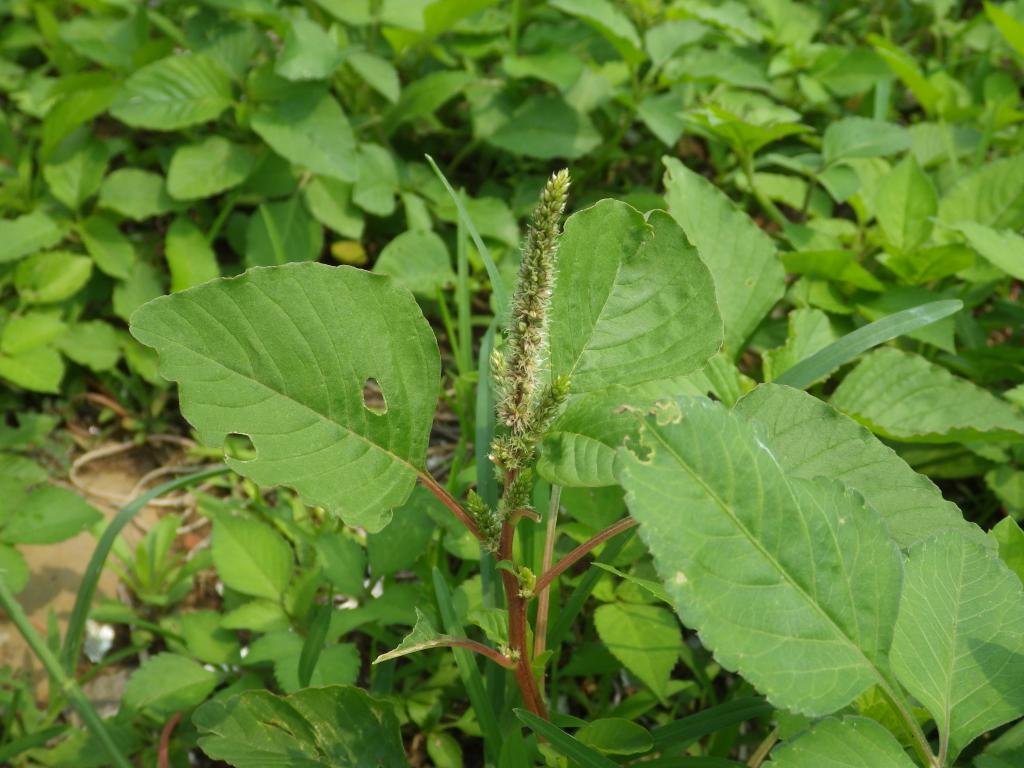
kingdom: Plantae
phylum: Tracheophyta
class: Magnoliopsida
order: Caryophyllales
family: Amaranthaceae
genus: Amaranthus
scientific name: Amaranthus viridis
